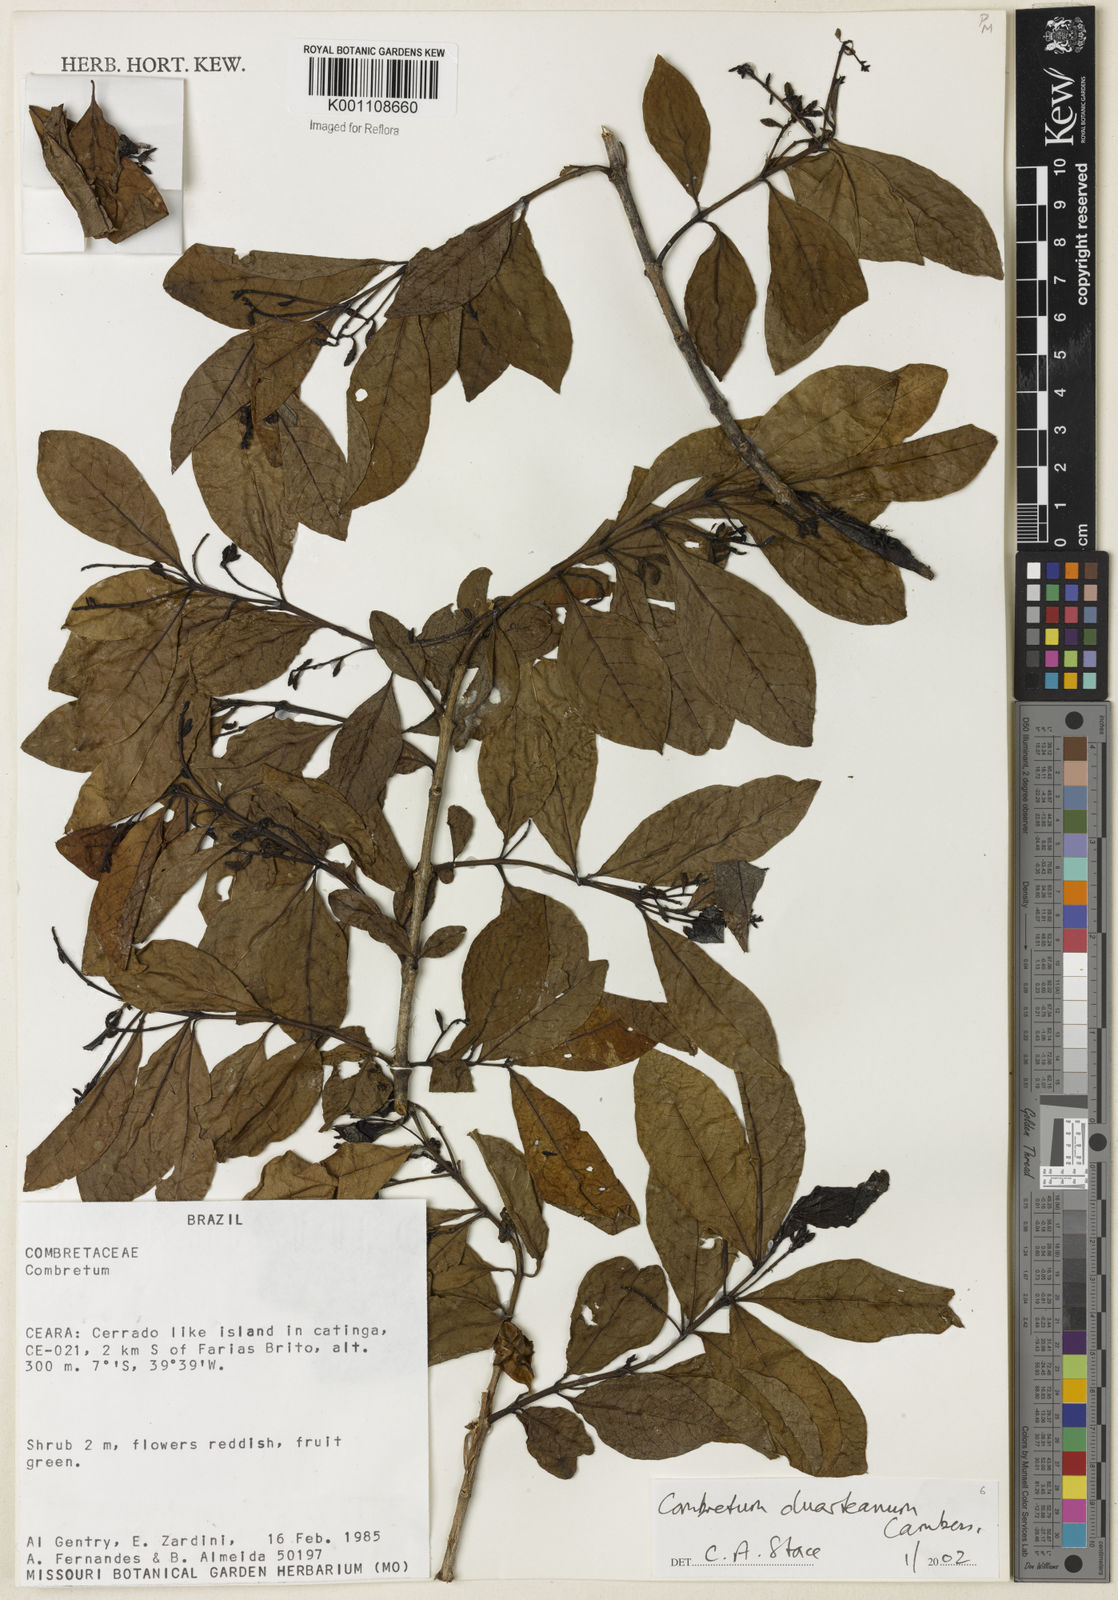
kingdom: Plantae
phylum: Tracheophyta
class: Magnoliopsida
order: Myrtales
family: Combretaceae
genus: Combretum
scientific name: Combretum duarteanum
